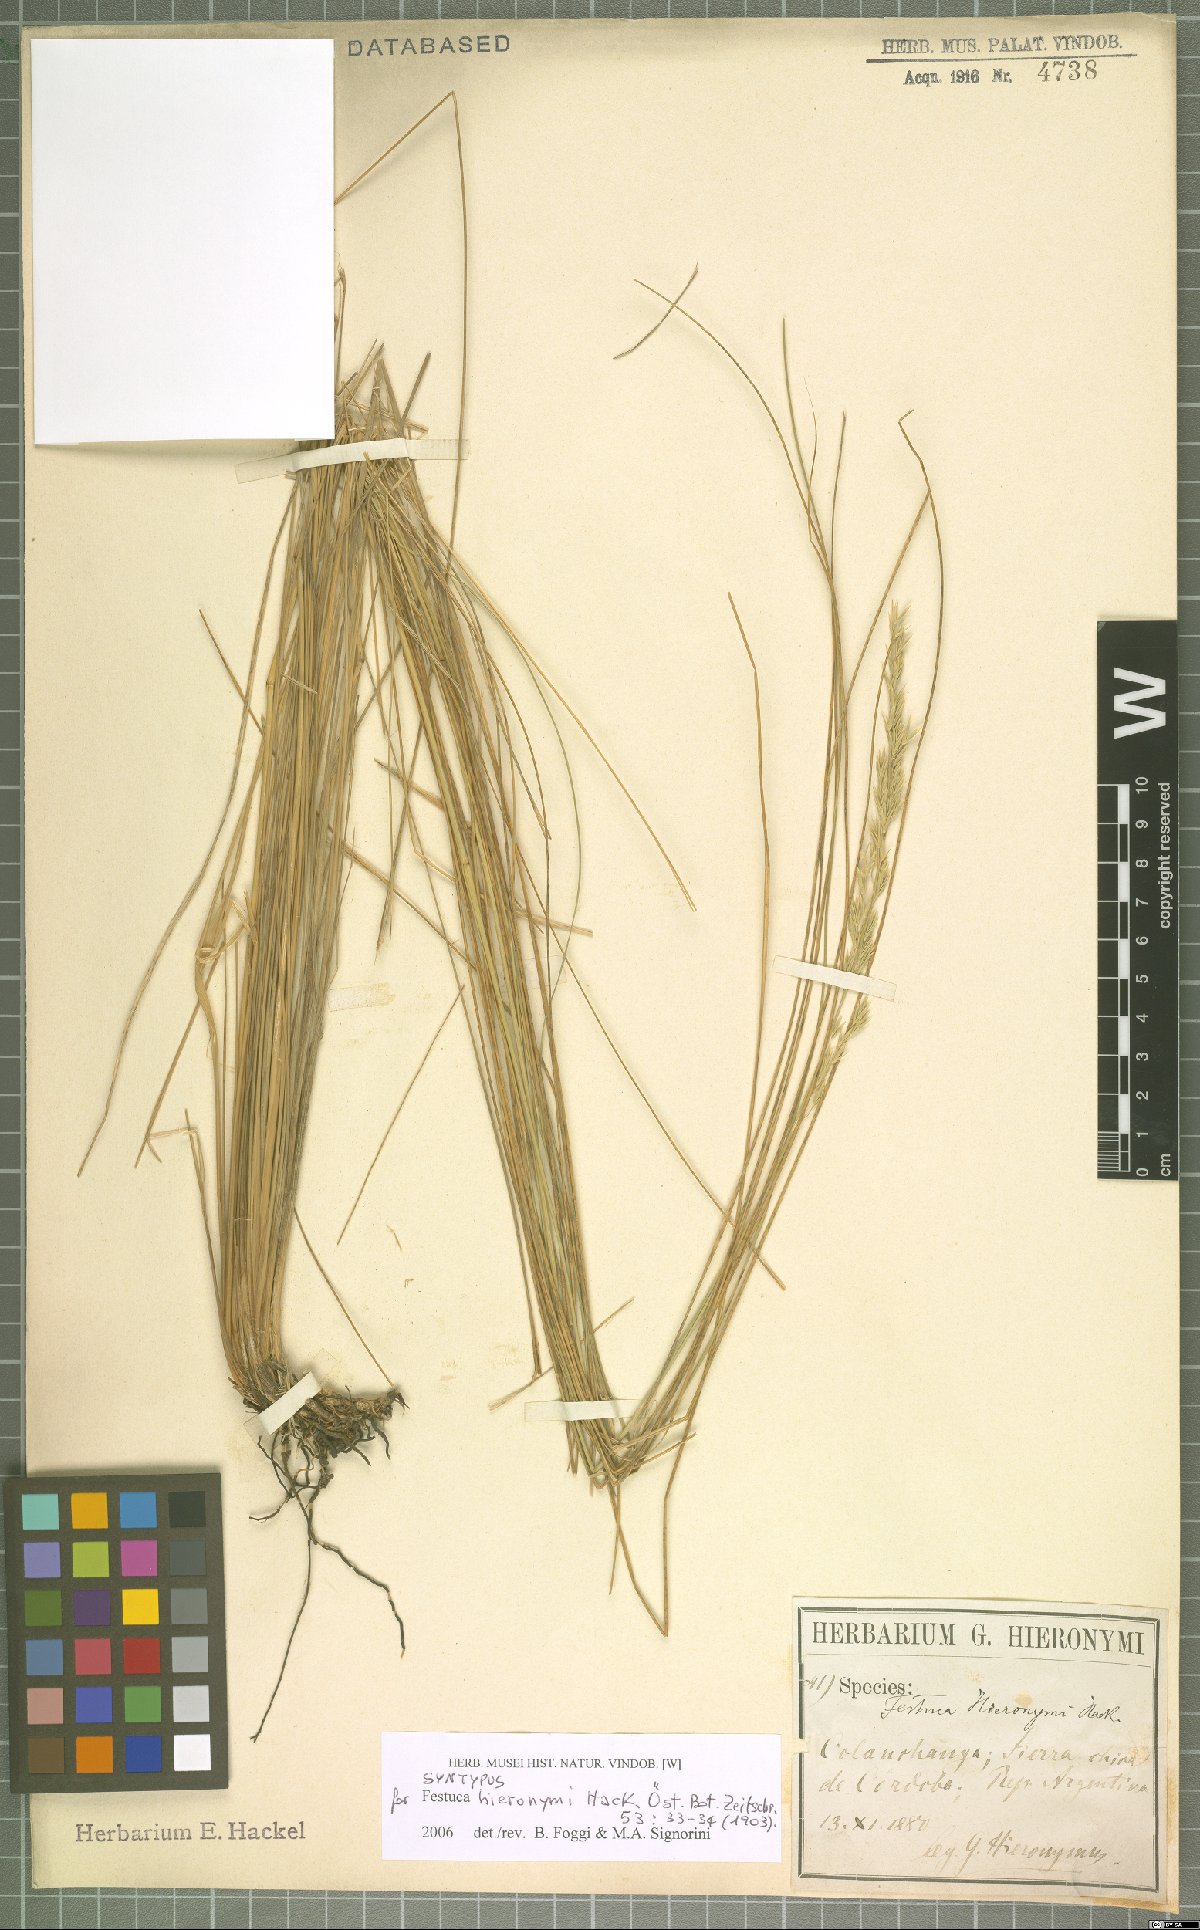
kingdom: Plantae
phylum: Tracheophyta
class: Liliopsida
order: Poales
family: Poaceae
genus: Festuca
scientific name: Festuca hieronymi
